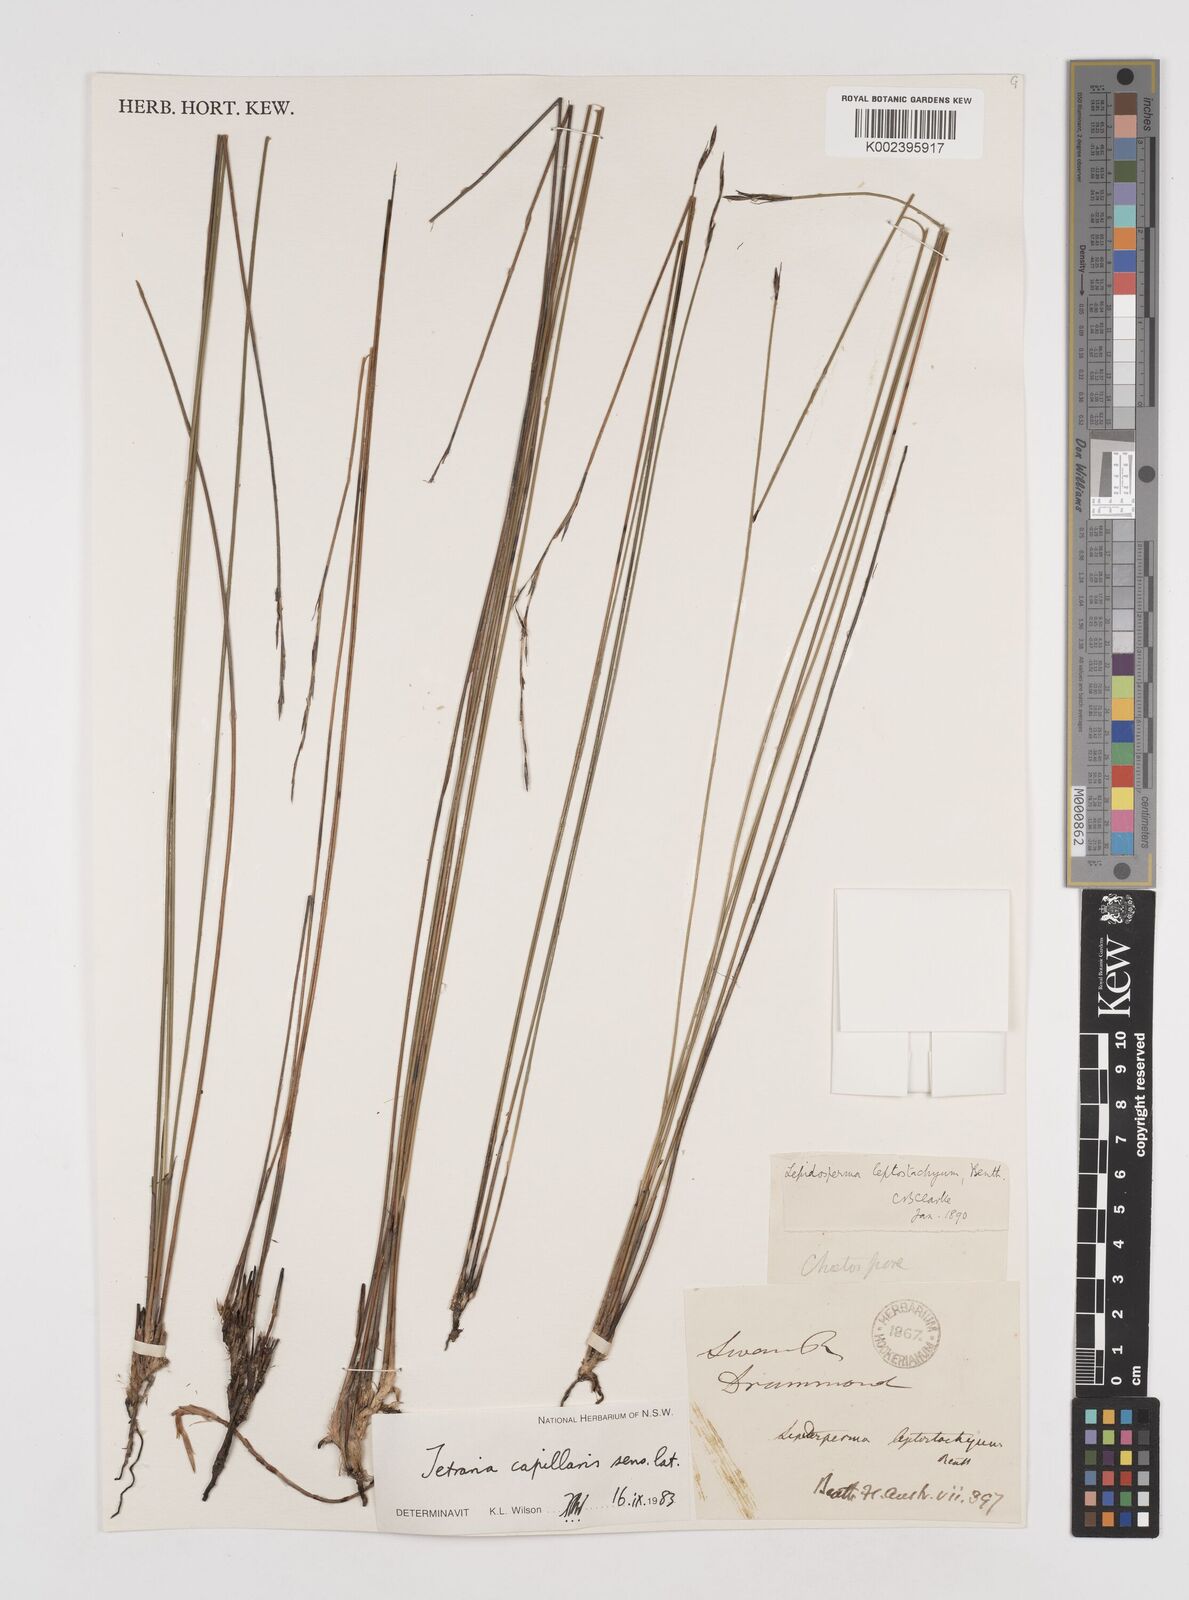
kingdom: Plantae
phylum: Tracheophyta
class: Liliopsida
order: Poales
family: Cyperaceae
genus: Tetraria
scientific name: Tetraria capillaris
